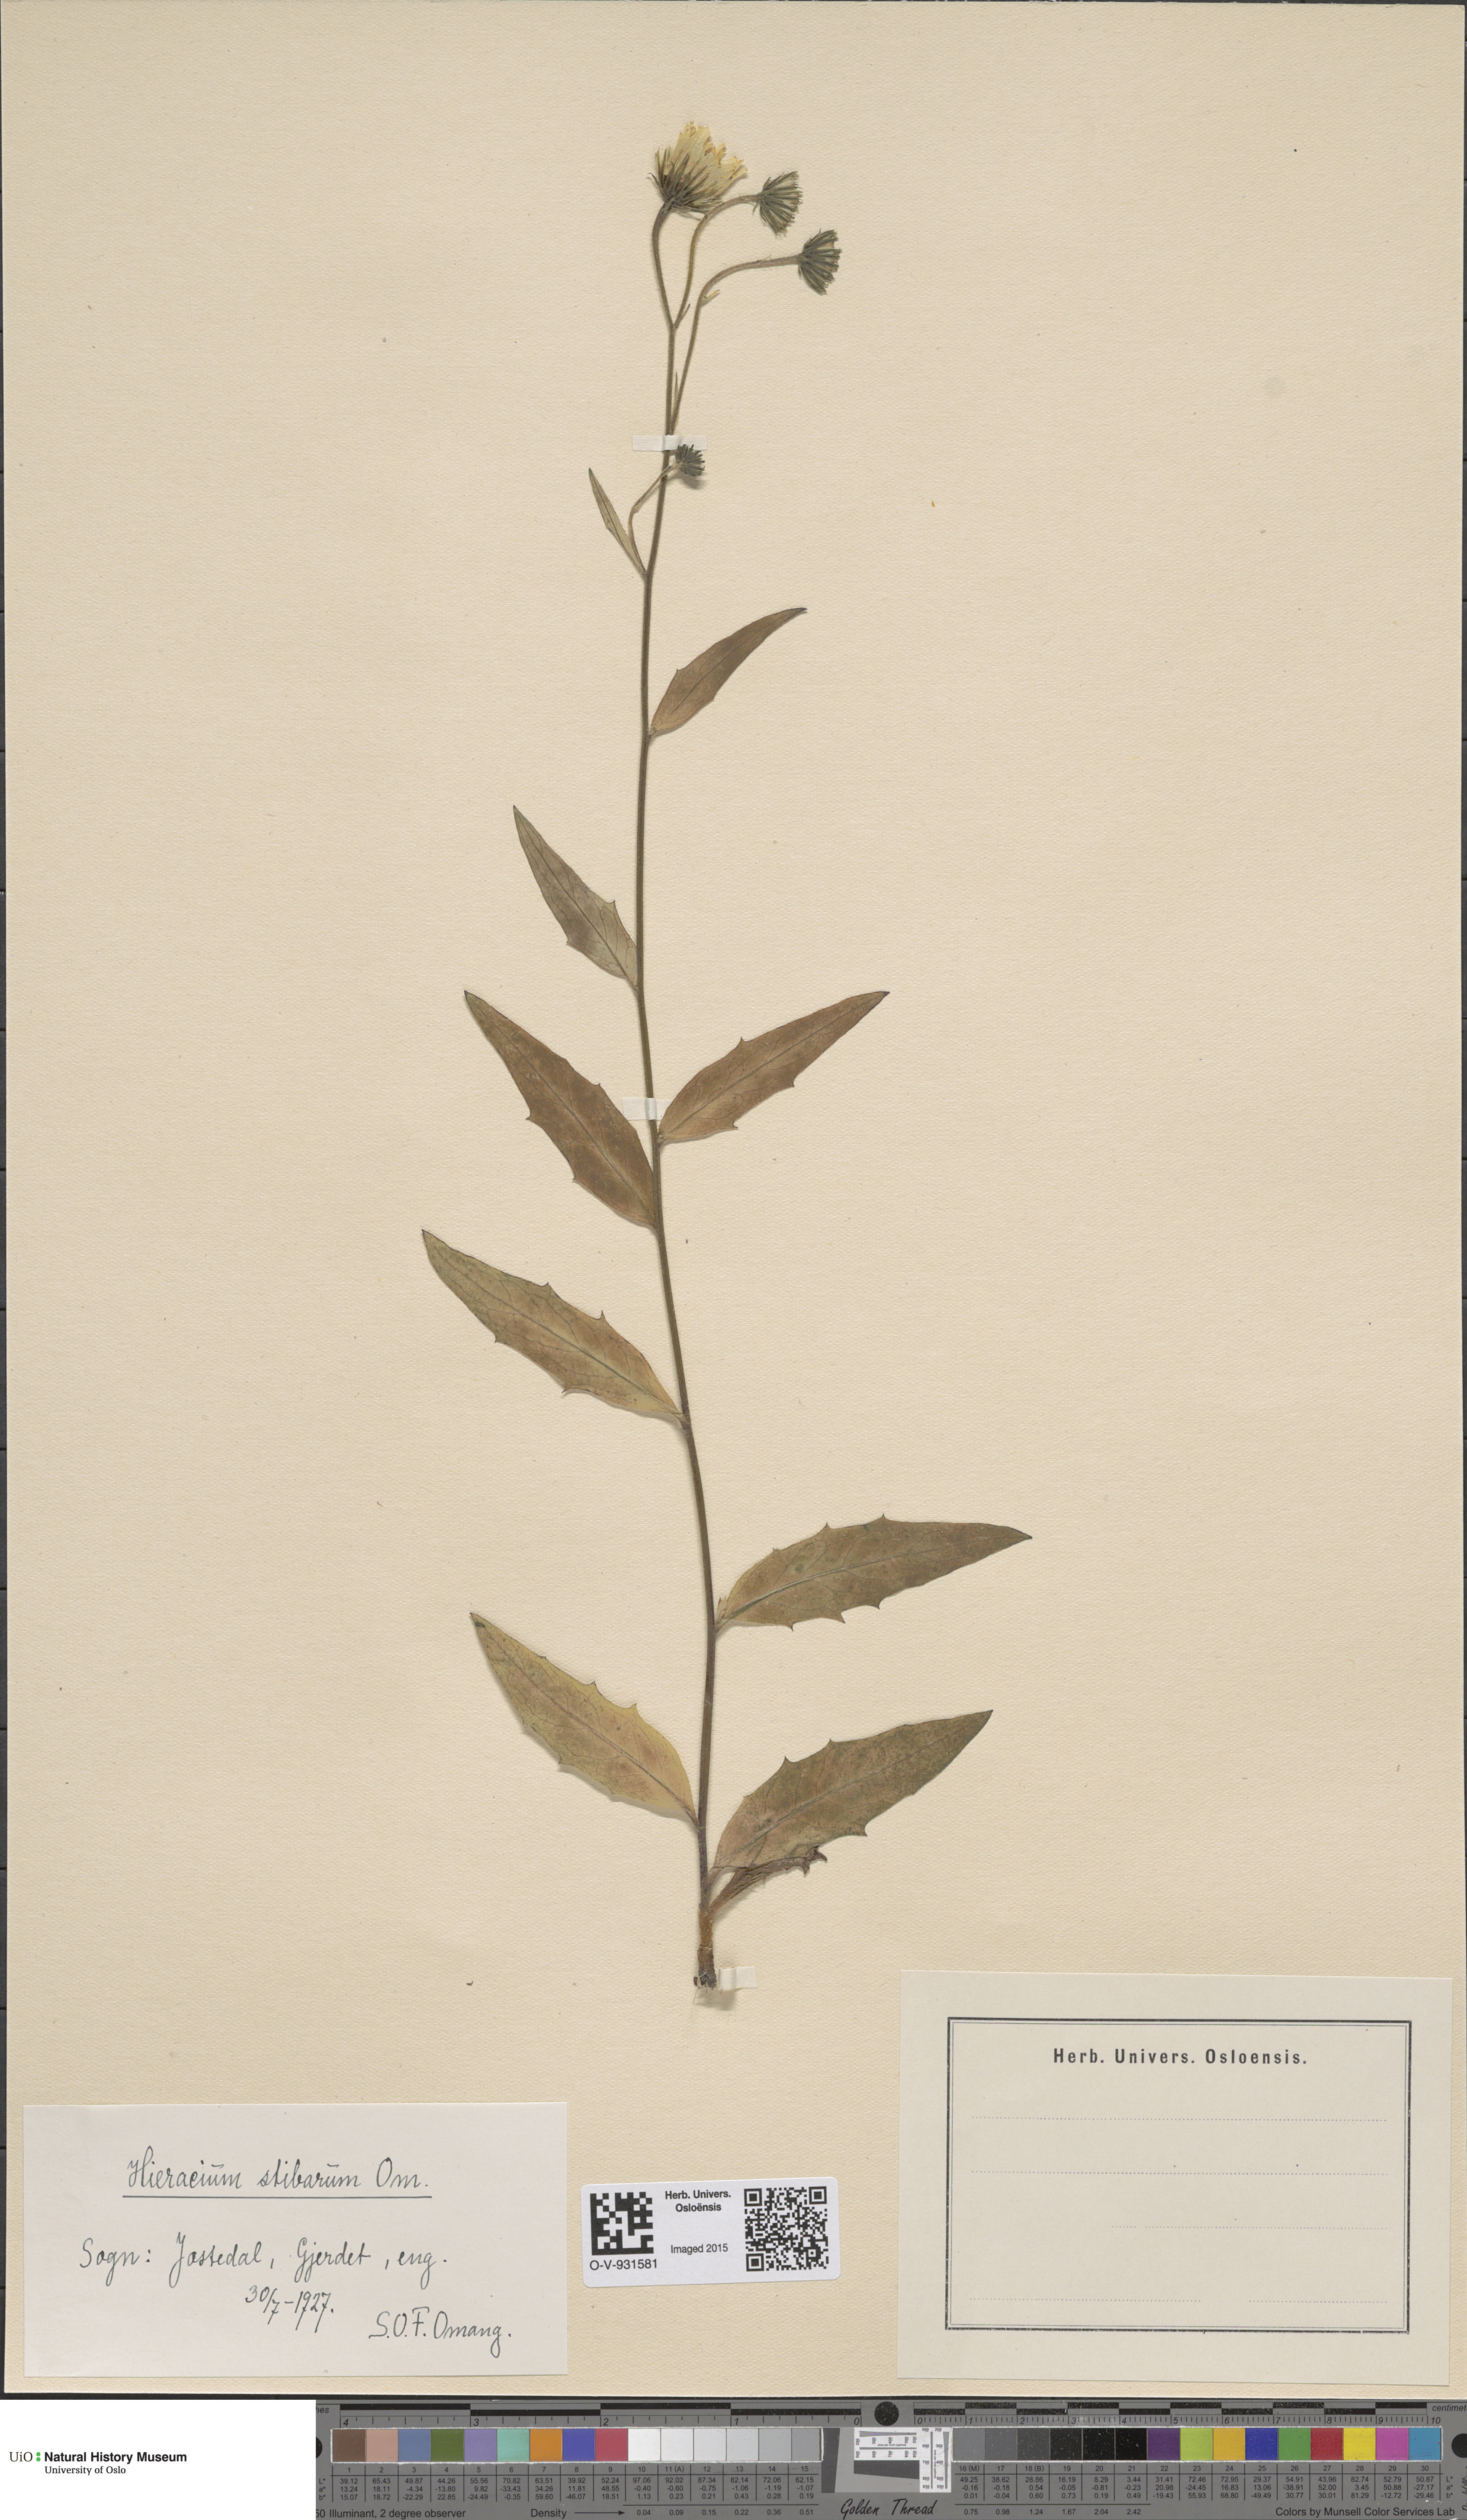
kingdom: Plantae
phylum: Tracheophyta
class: Magnoliopsida
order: Asterales
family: Asteraceae
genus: Hieracium
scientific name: Hieracium
